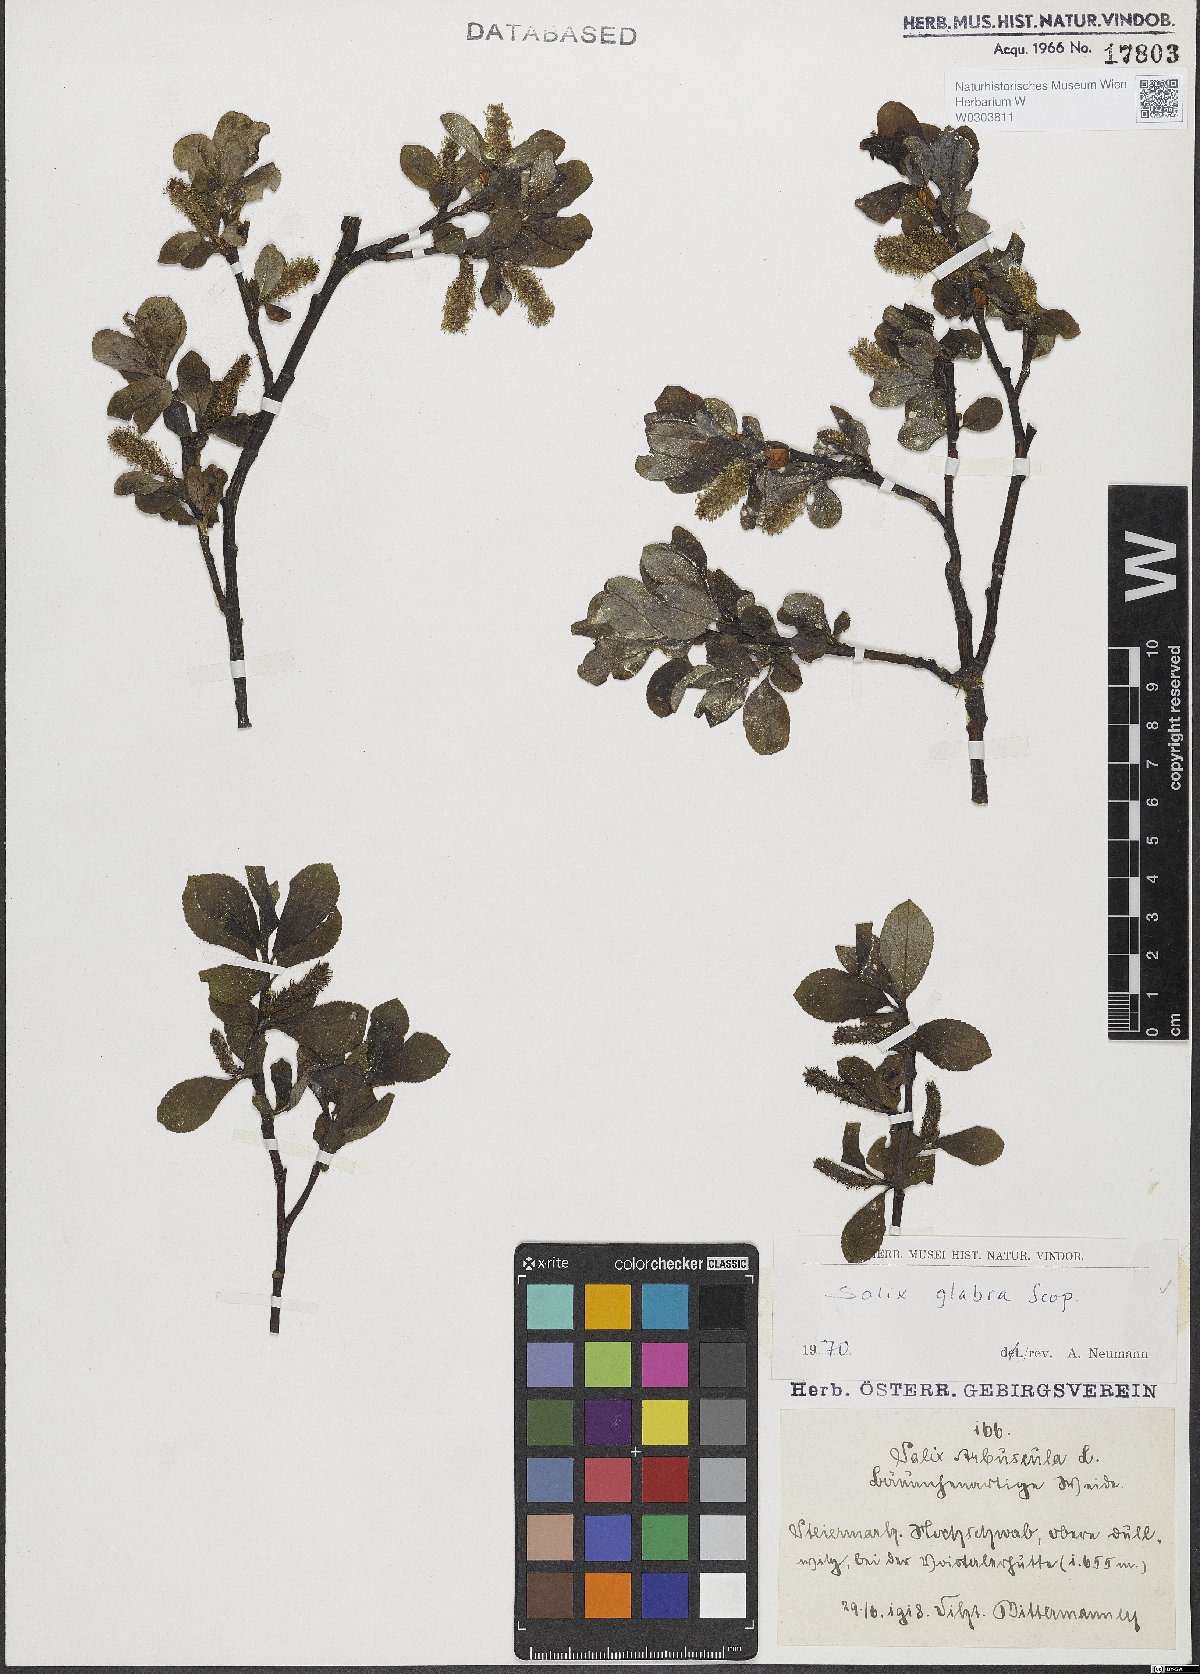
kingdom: Plantae
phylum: Tracheophyta
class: Magnoliopsida
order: Malpighiales
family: Salicaceae
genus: Salix
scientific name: Salix glabra
